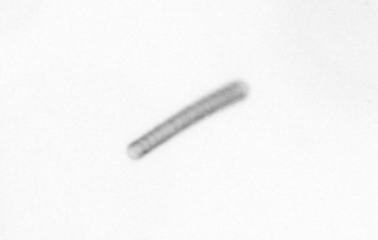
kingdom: Chromista
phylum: Ochrophyta
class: Bacillariophyceae
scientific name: Bacillariophyceae
